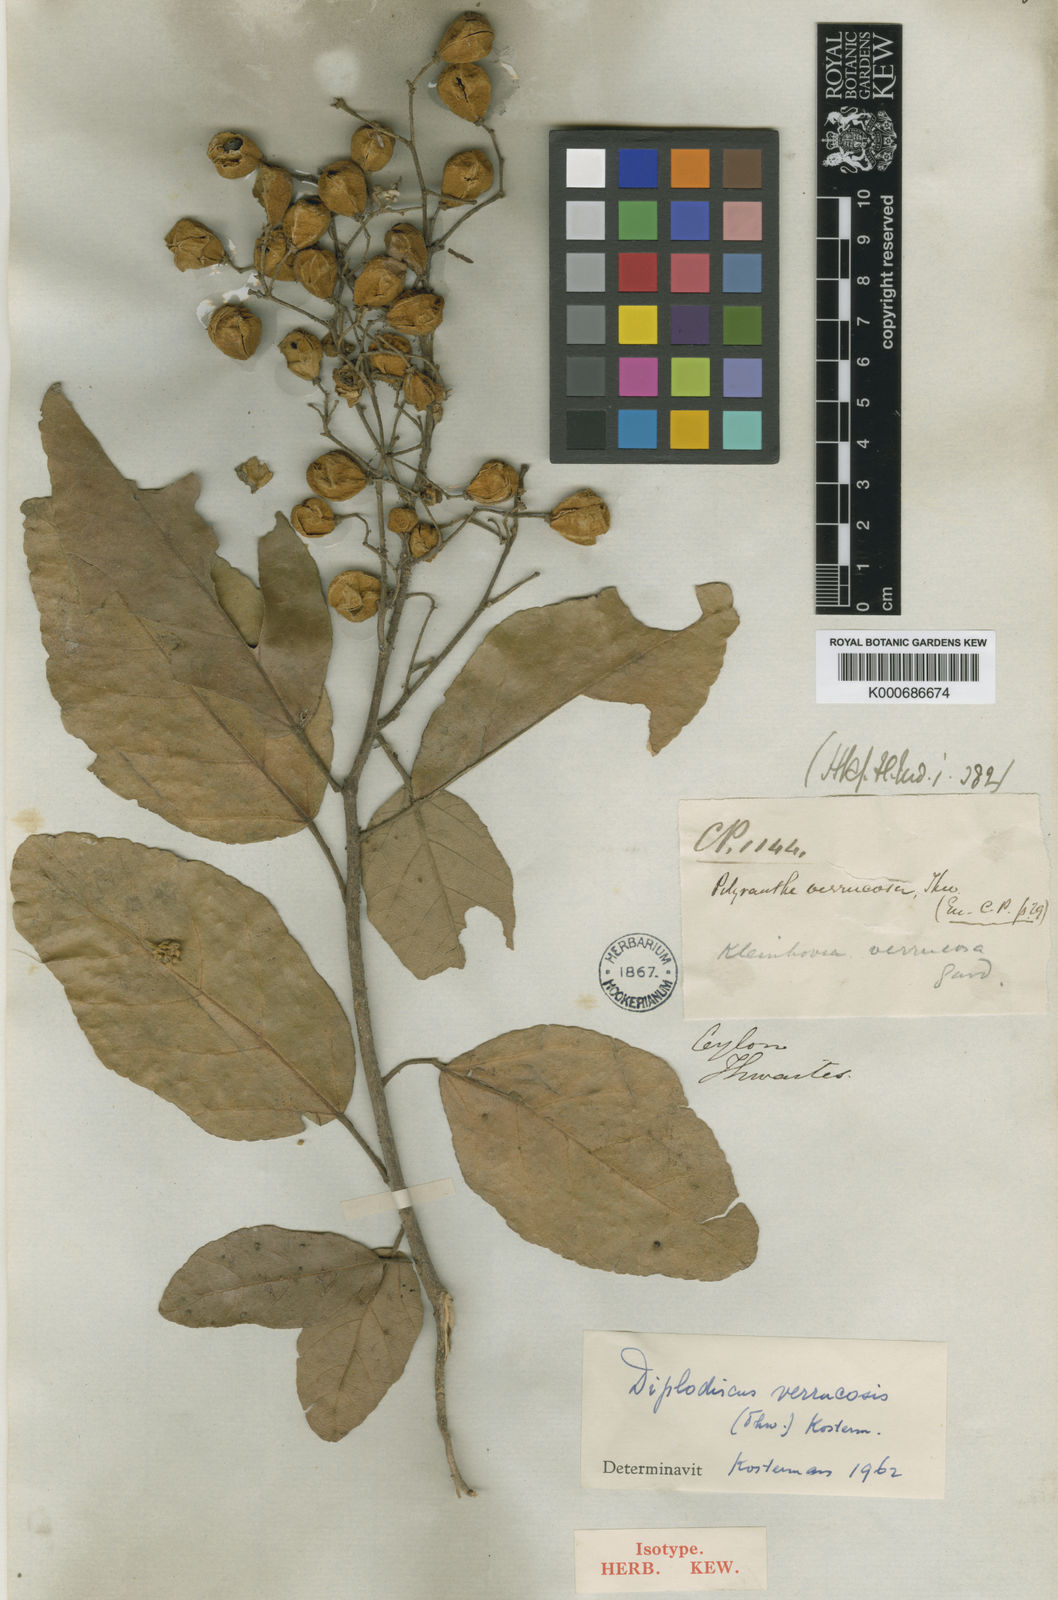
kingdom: Plantae
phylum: Tracheophyta
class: Magnoliopsida
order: Malvales
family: Malvaceae
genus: Pityranthe
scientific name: Pityranthe verrucosa
